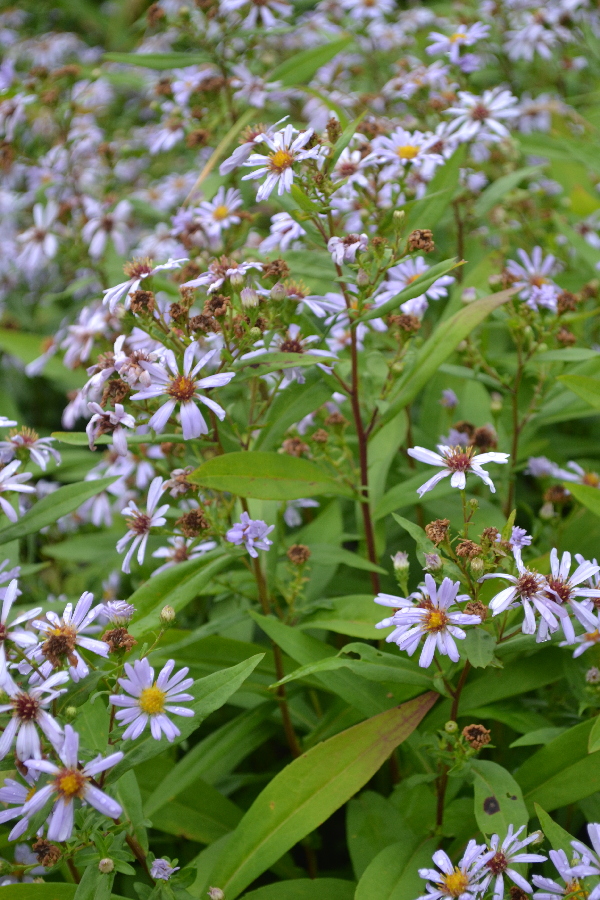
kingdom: Plantae
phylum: Tracheophyta
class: Magnoliopsida
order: Asterales
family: Asteraceae
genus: Erigeron
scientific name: Erigeron annuus
